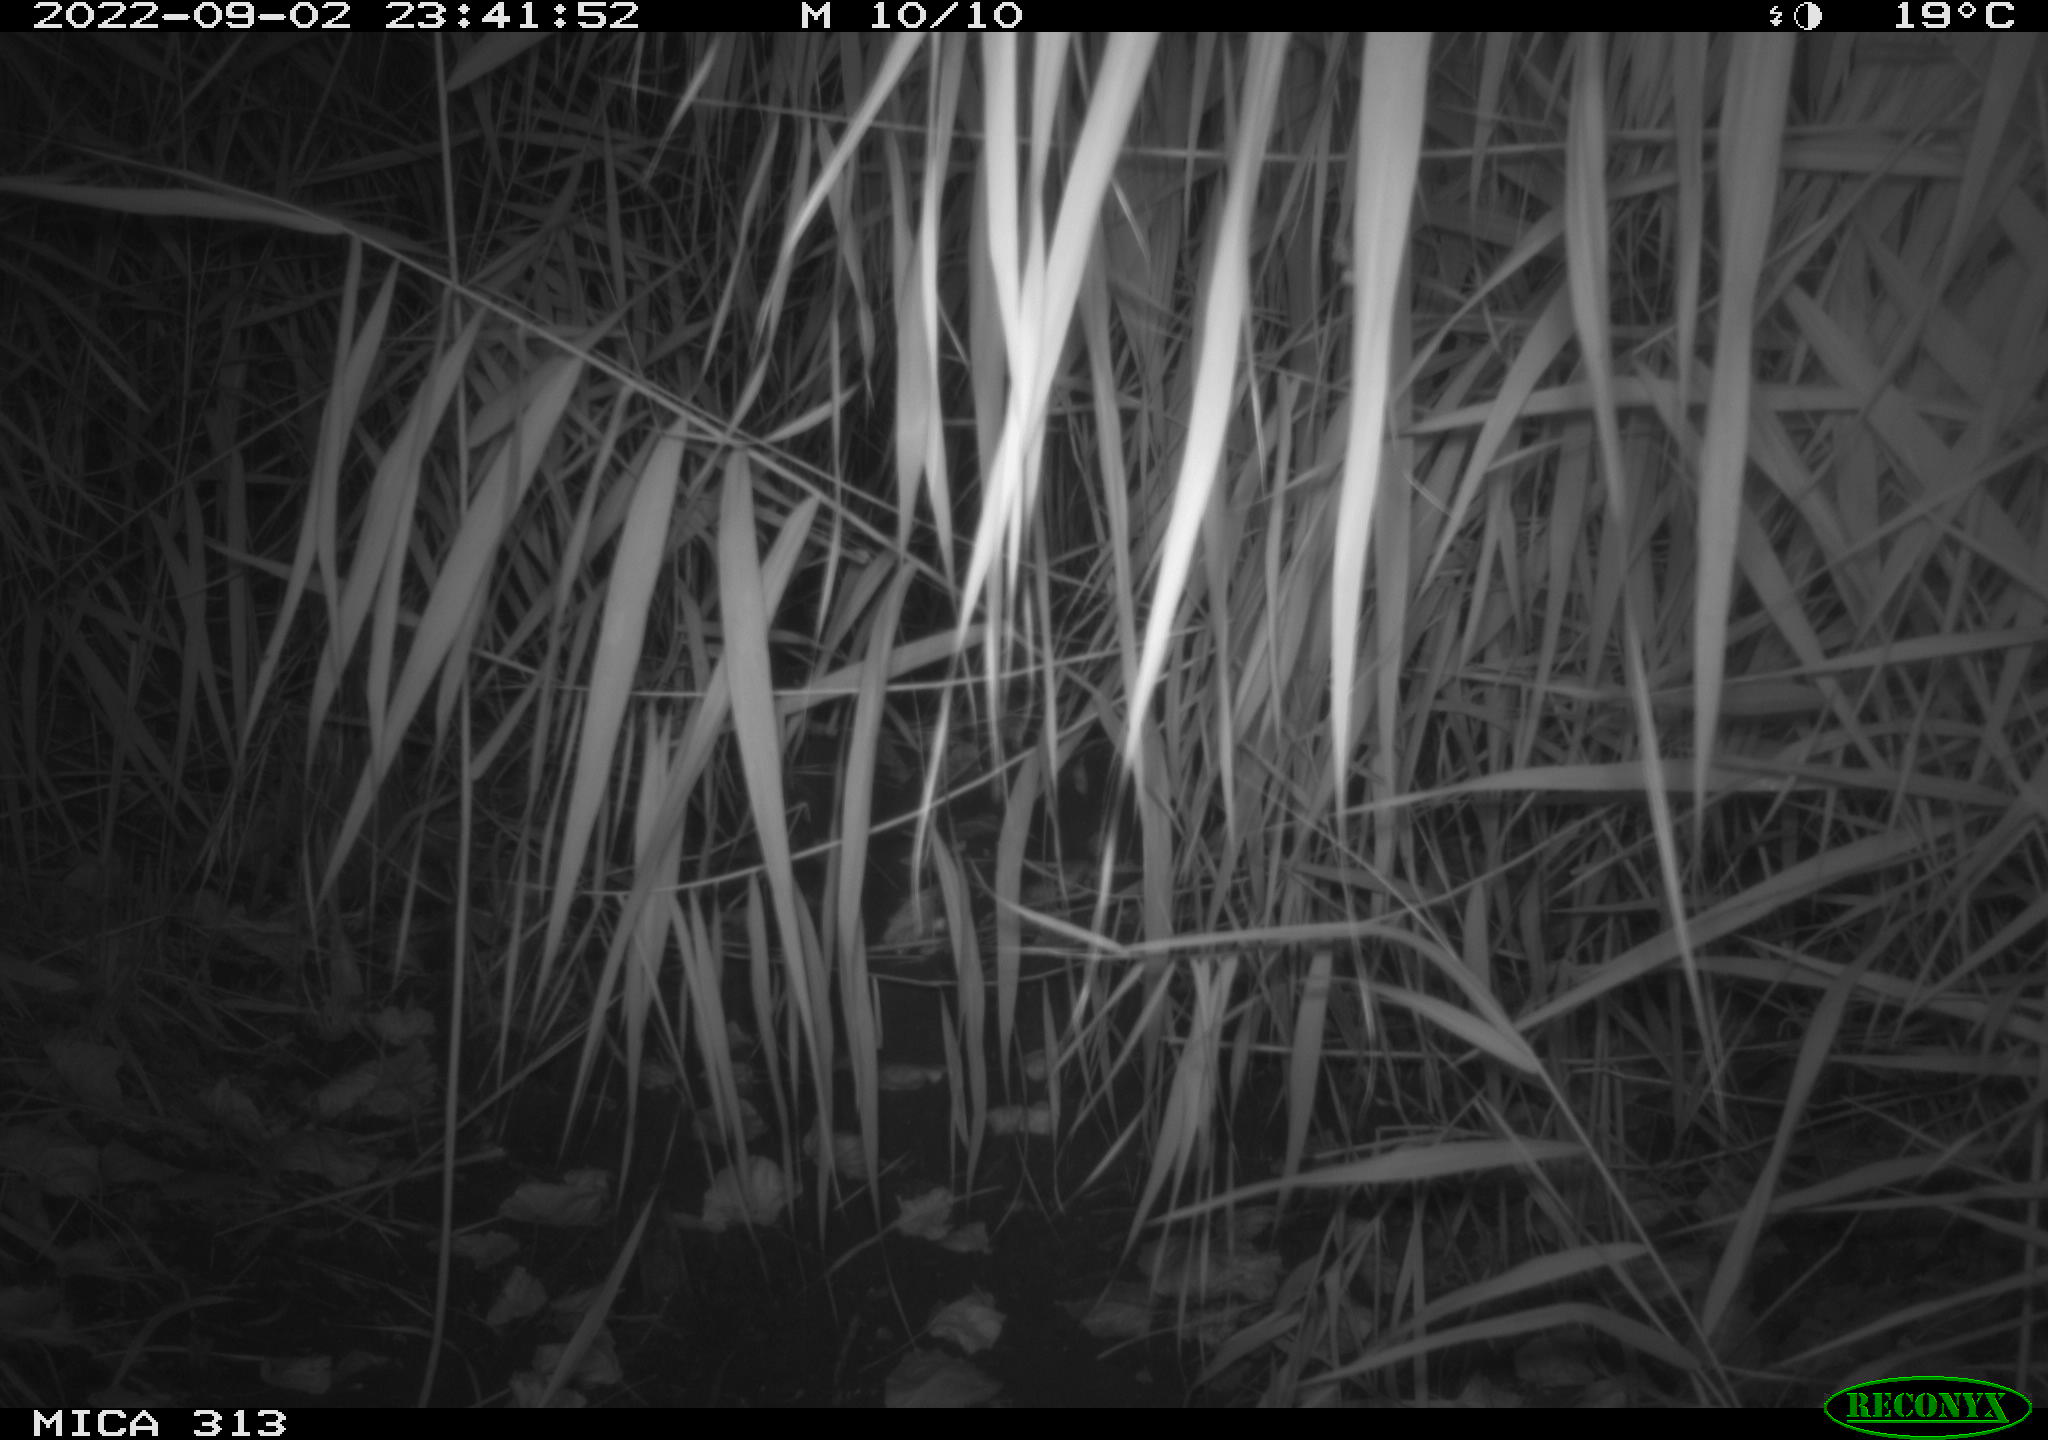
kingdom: Animalia
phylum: Chordata
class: Mammalia
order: Rodentia
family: Muridae
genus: Rattus
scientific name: Rattus norvegicus
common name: Brown rat
